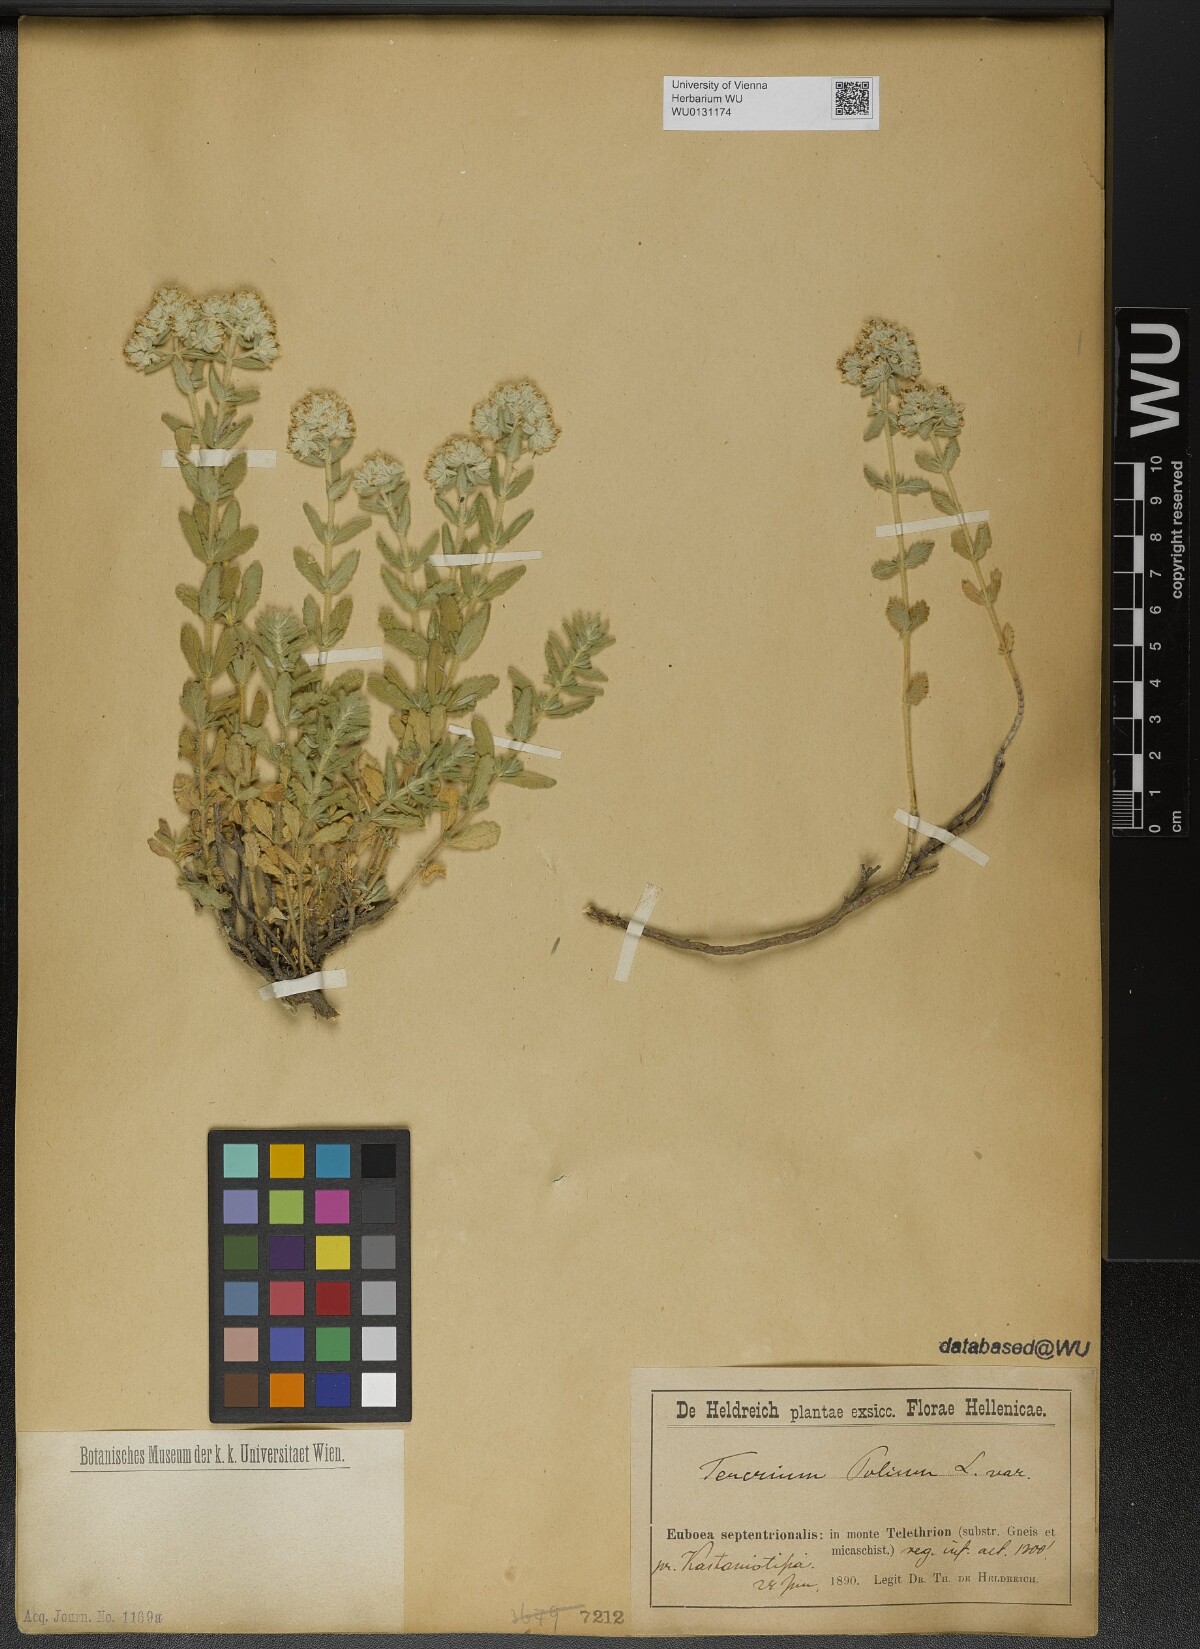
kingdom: Plantae
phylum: Tracheophyta
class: Magnoliopsida
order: Lamiales
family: Lamiaceae
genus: Teucrium
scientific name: Teucrium polium
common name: Poley
